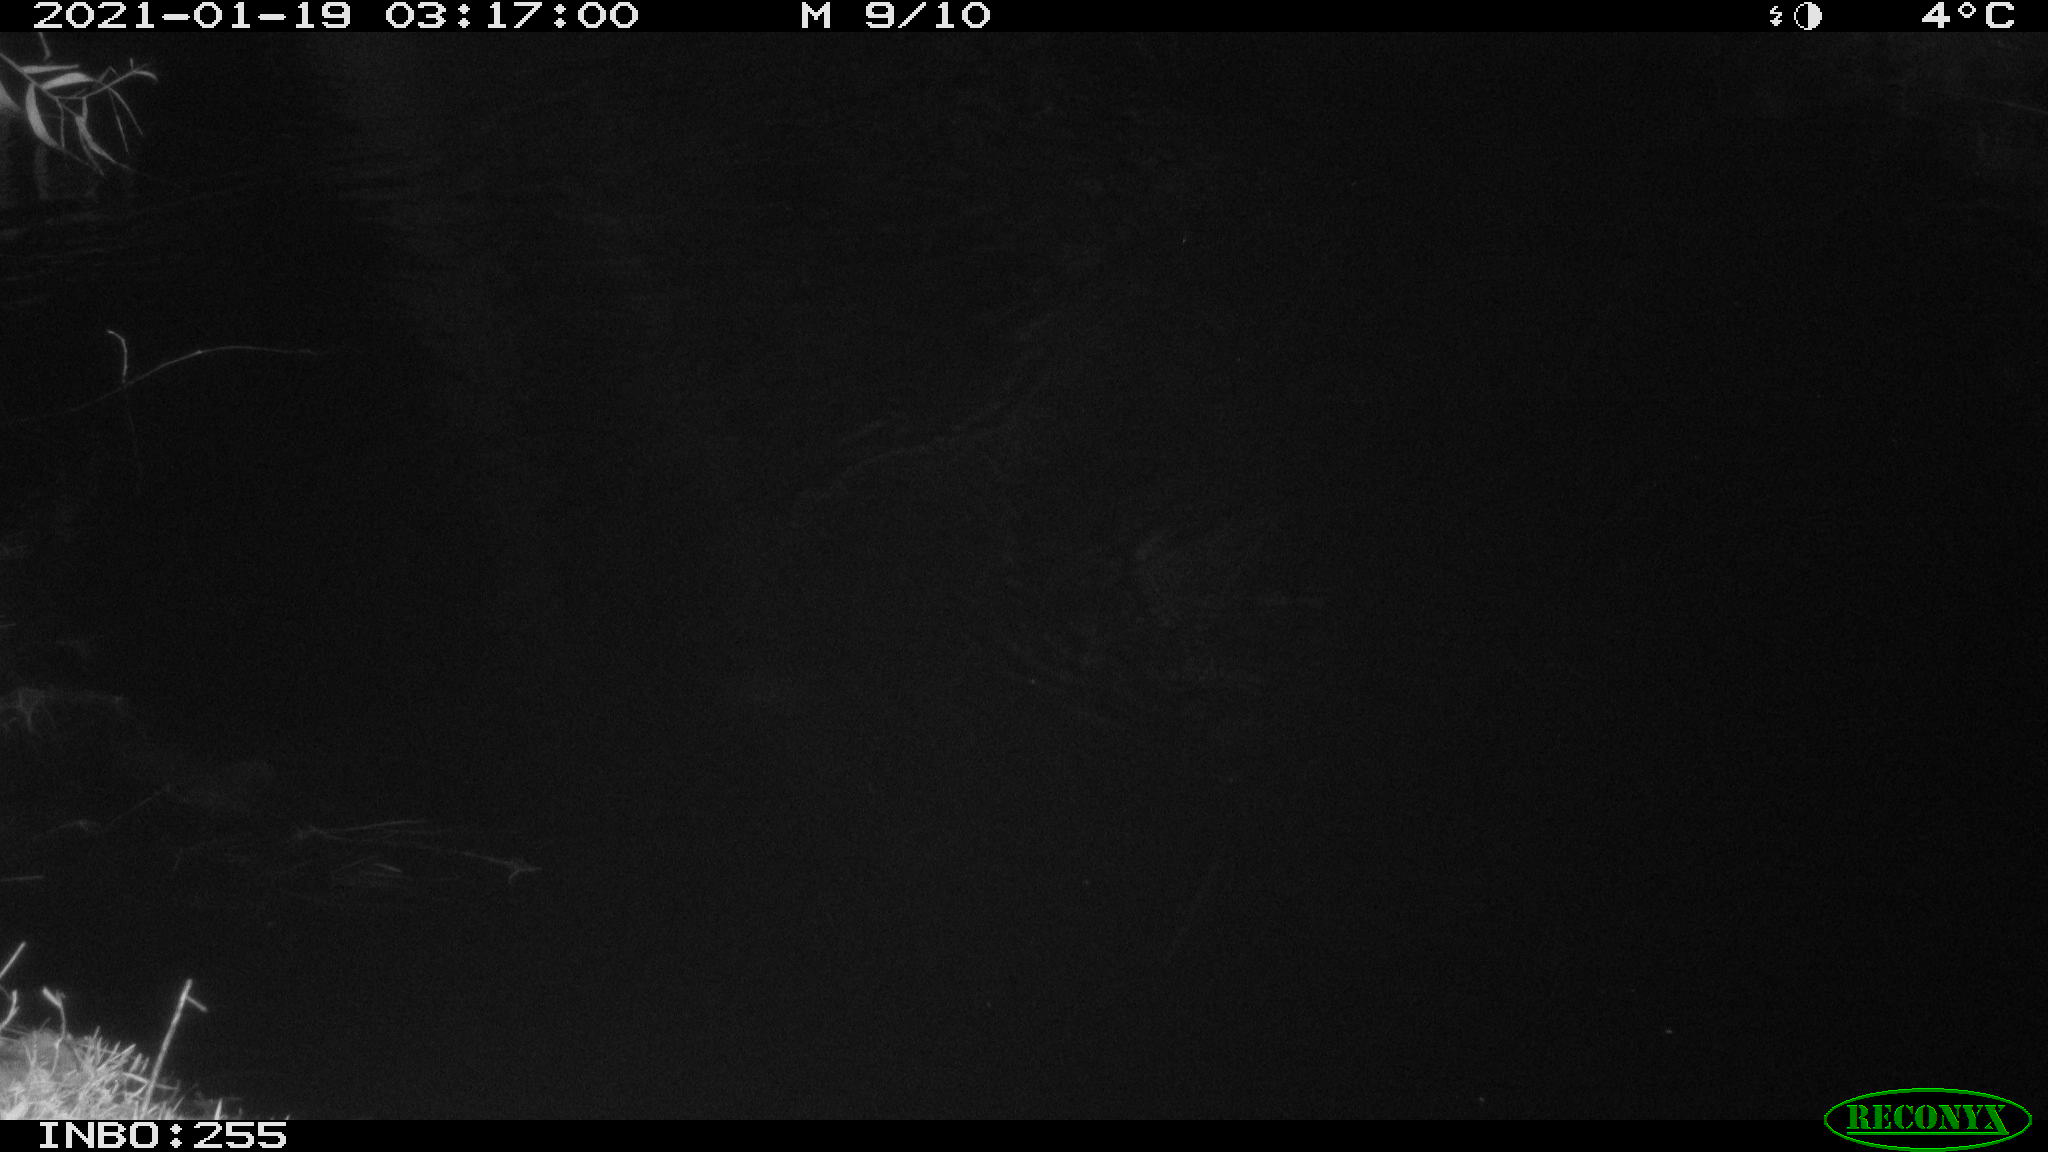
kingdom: Animalia
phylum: Chordata
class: Mammalia
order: Rodentia
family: Muridae
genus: Rattus
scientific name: Rattus norvegicus
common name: Brown rat
